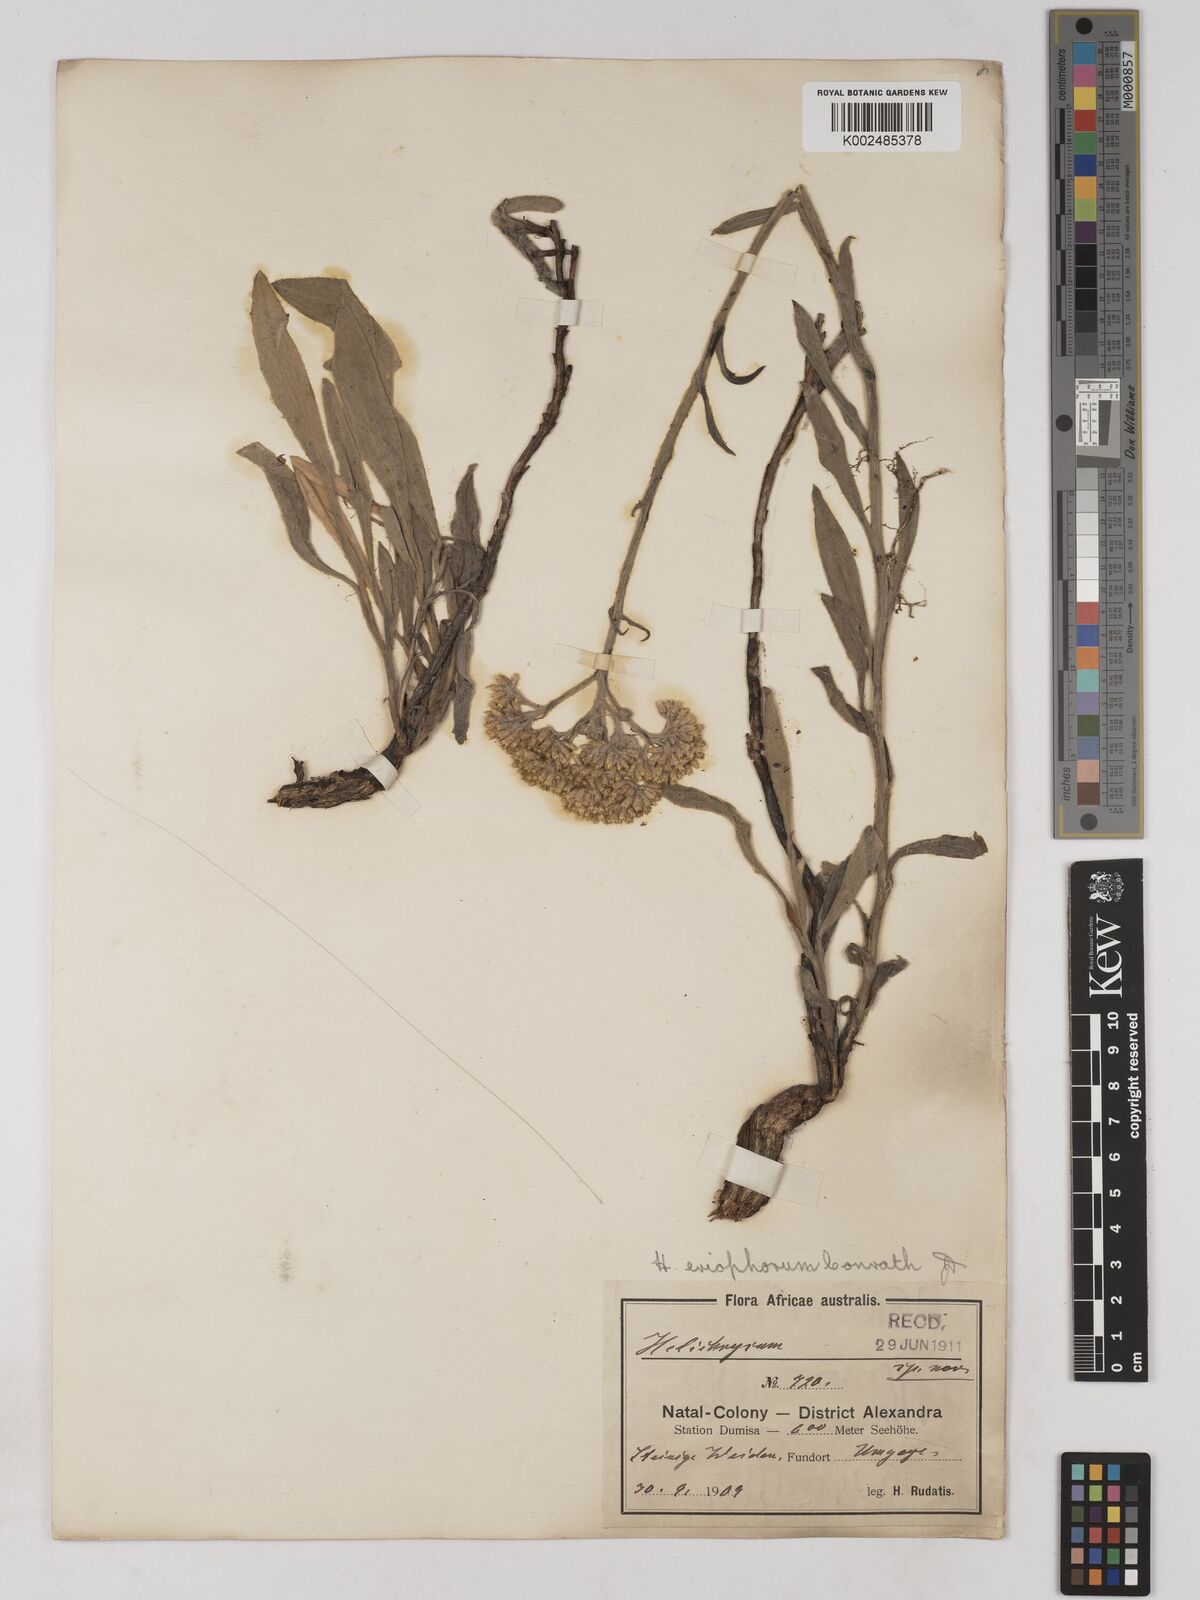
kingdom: Plantae
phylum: Tracheophyta
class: Magnoliopsida
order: Asterales
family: Asteraceae
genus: Helichrysum
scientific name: Helichrysum acutatum
